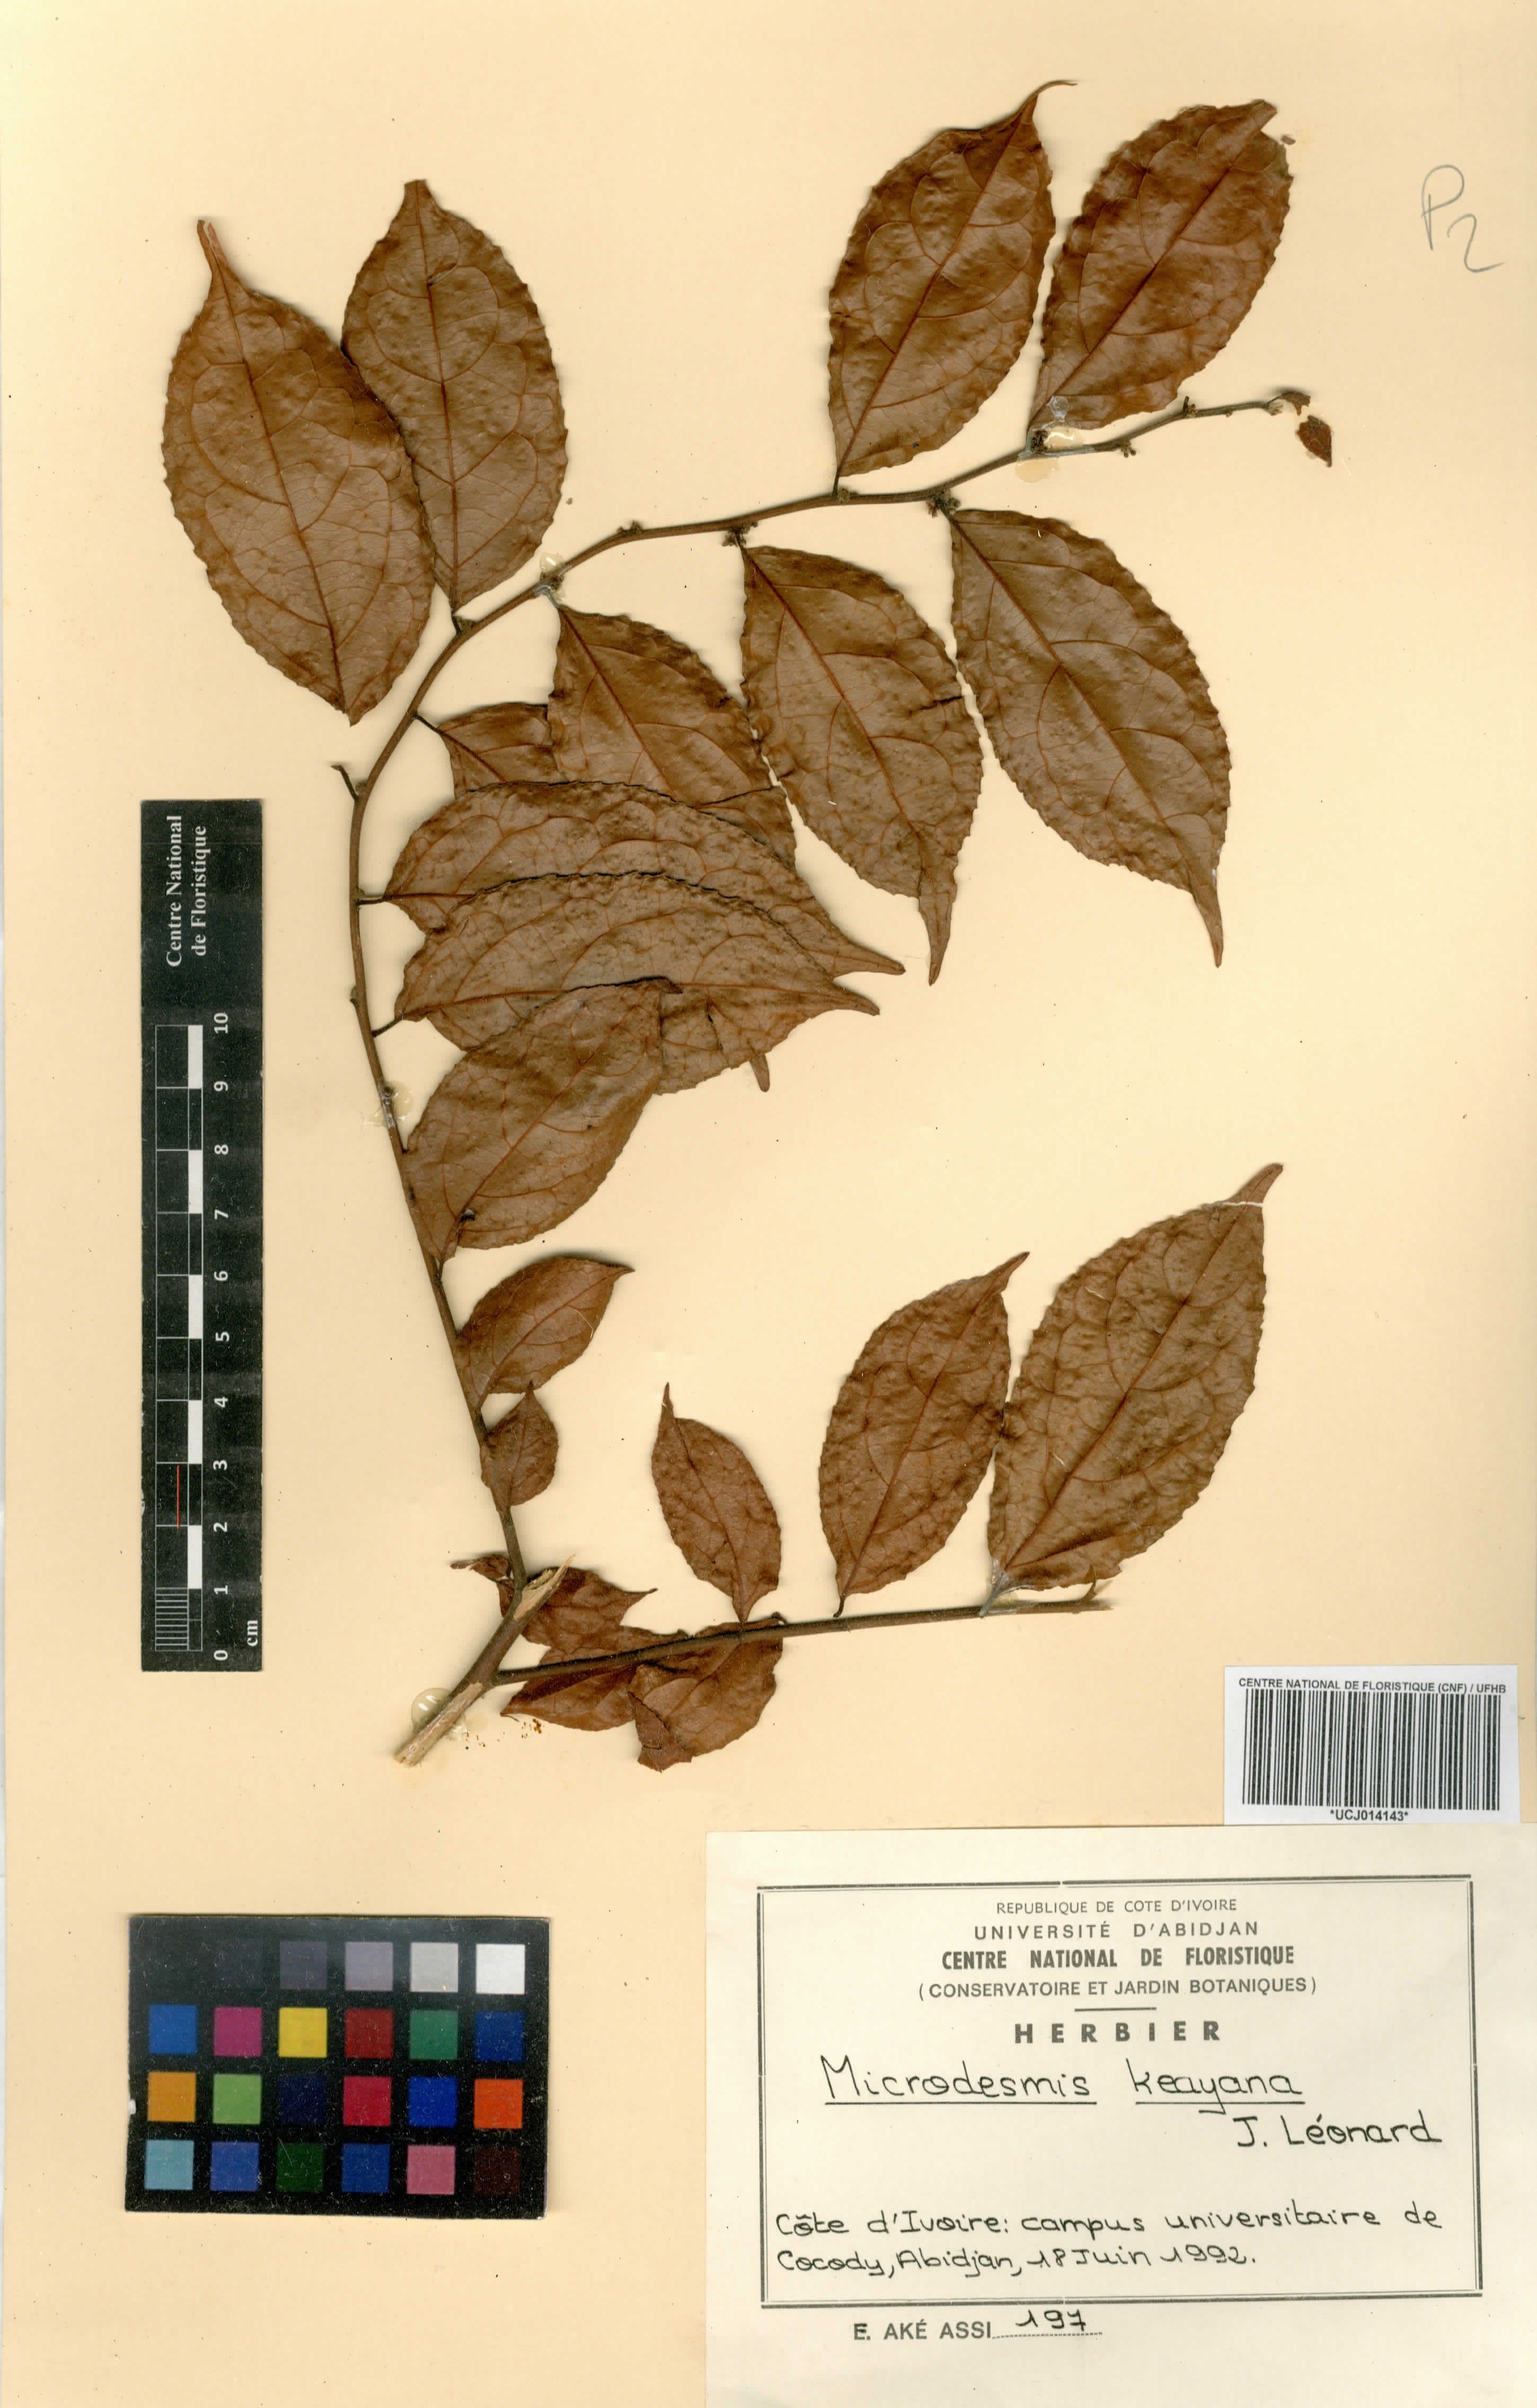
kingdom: Plantae
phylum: Tracheophyta
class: Magnoliopsida
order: Malpighiales
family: Pandaceae
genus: Microdesmis
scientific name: Microdesmis keayana
